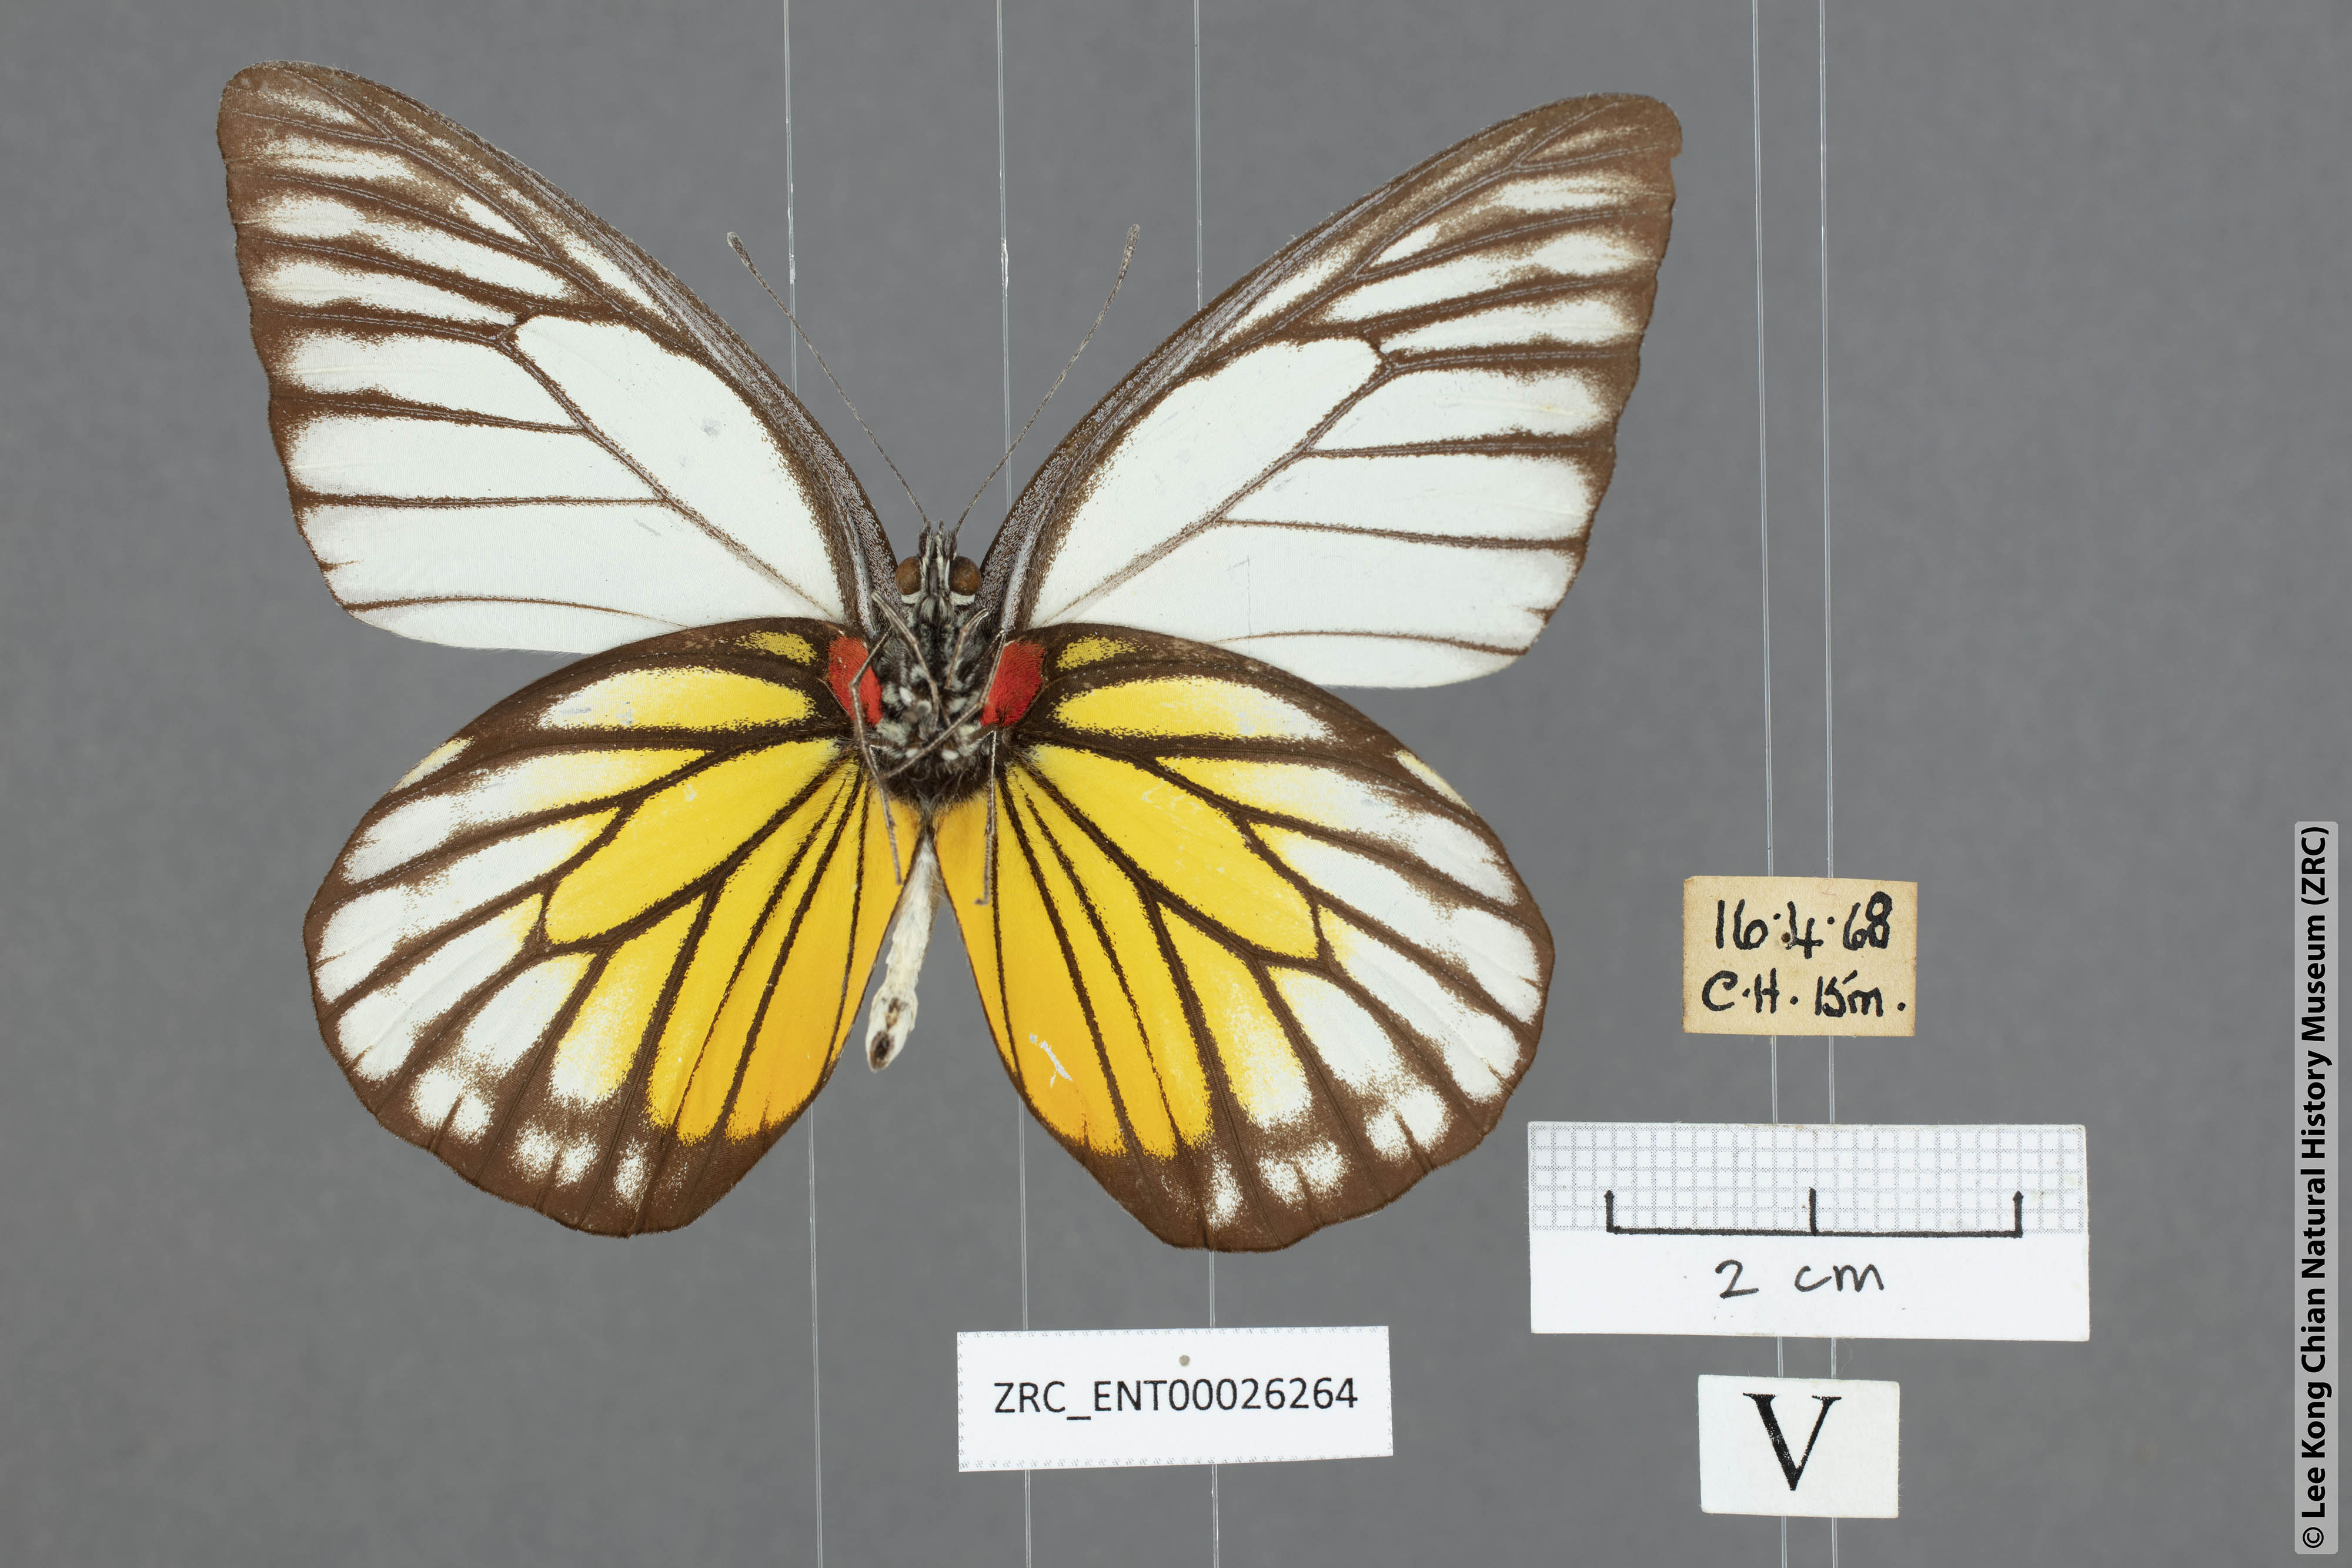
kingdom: Animalia
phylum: Arthropoda
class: Insecta
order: Lepidoptera
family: Pieridae
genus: Prioneris
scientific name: Prioneris philonome
